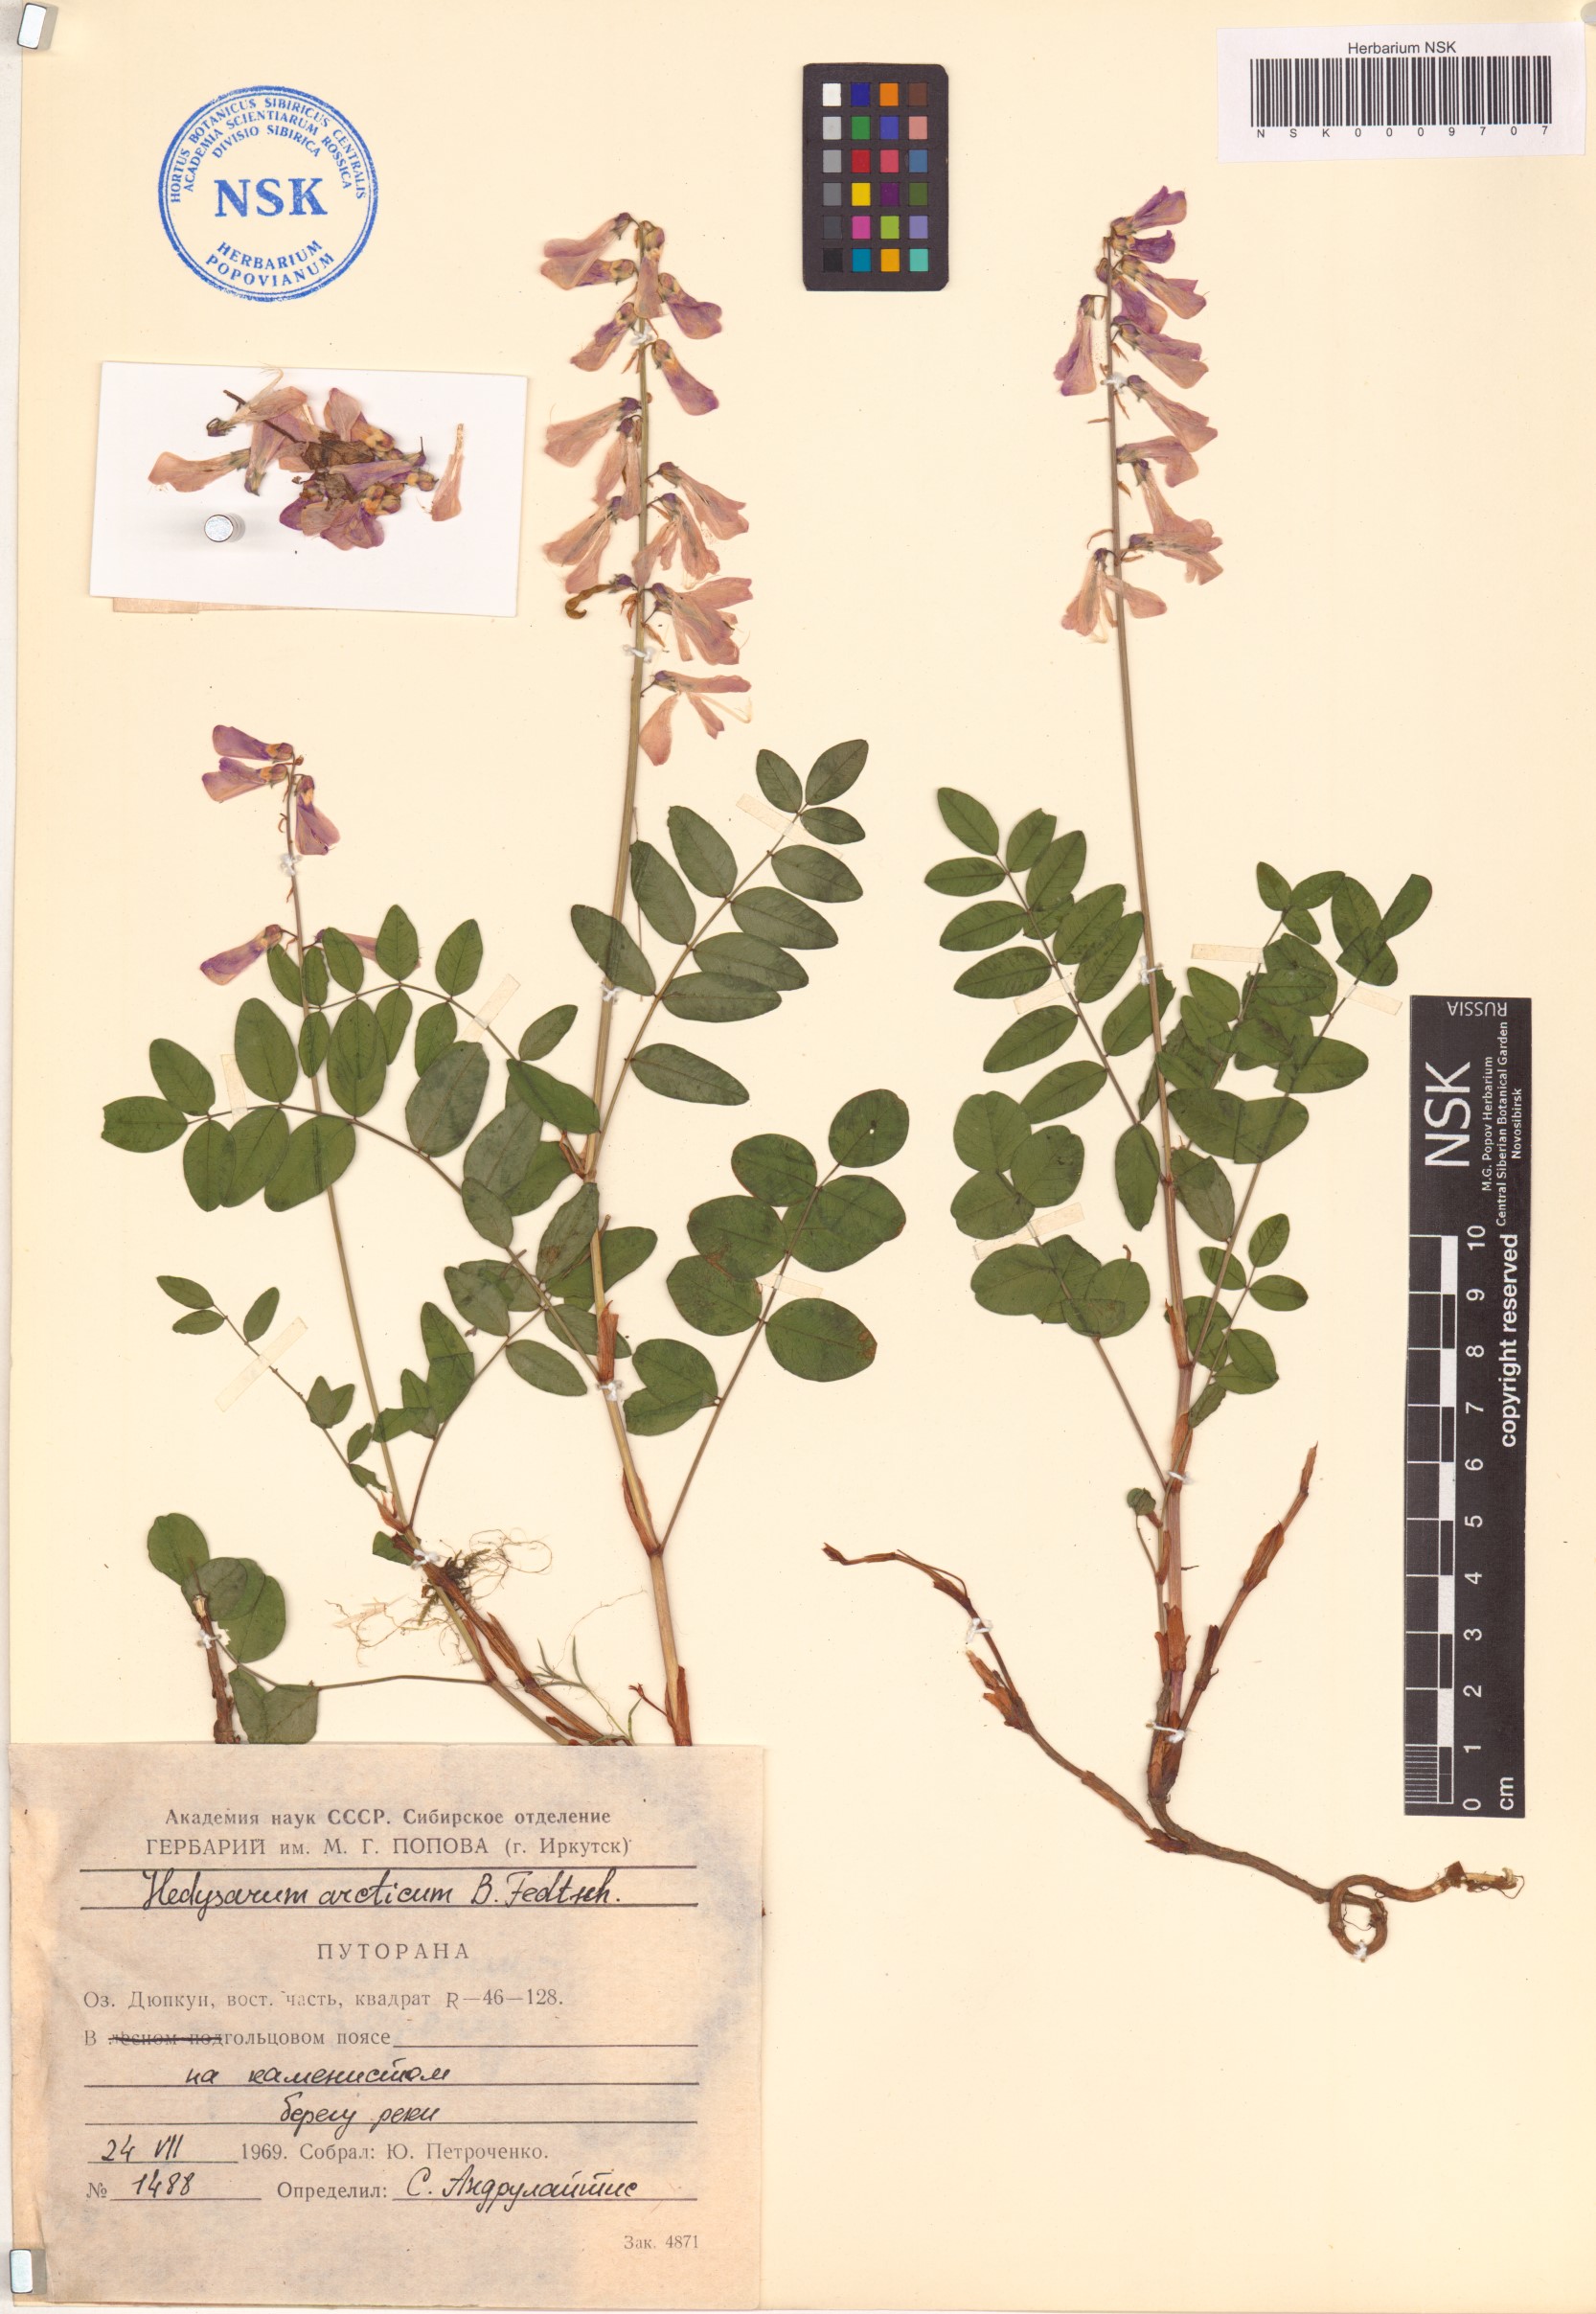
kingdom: Plantae
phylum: Tracheophyta
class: Magnoliopsida
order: Fabales
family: Fabaceae
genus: Hedysarum
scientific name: Hedysarum hedysaroides
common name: Alpine french-honeysuckle
